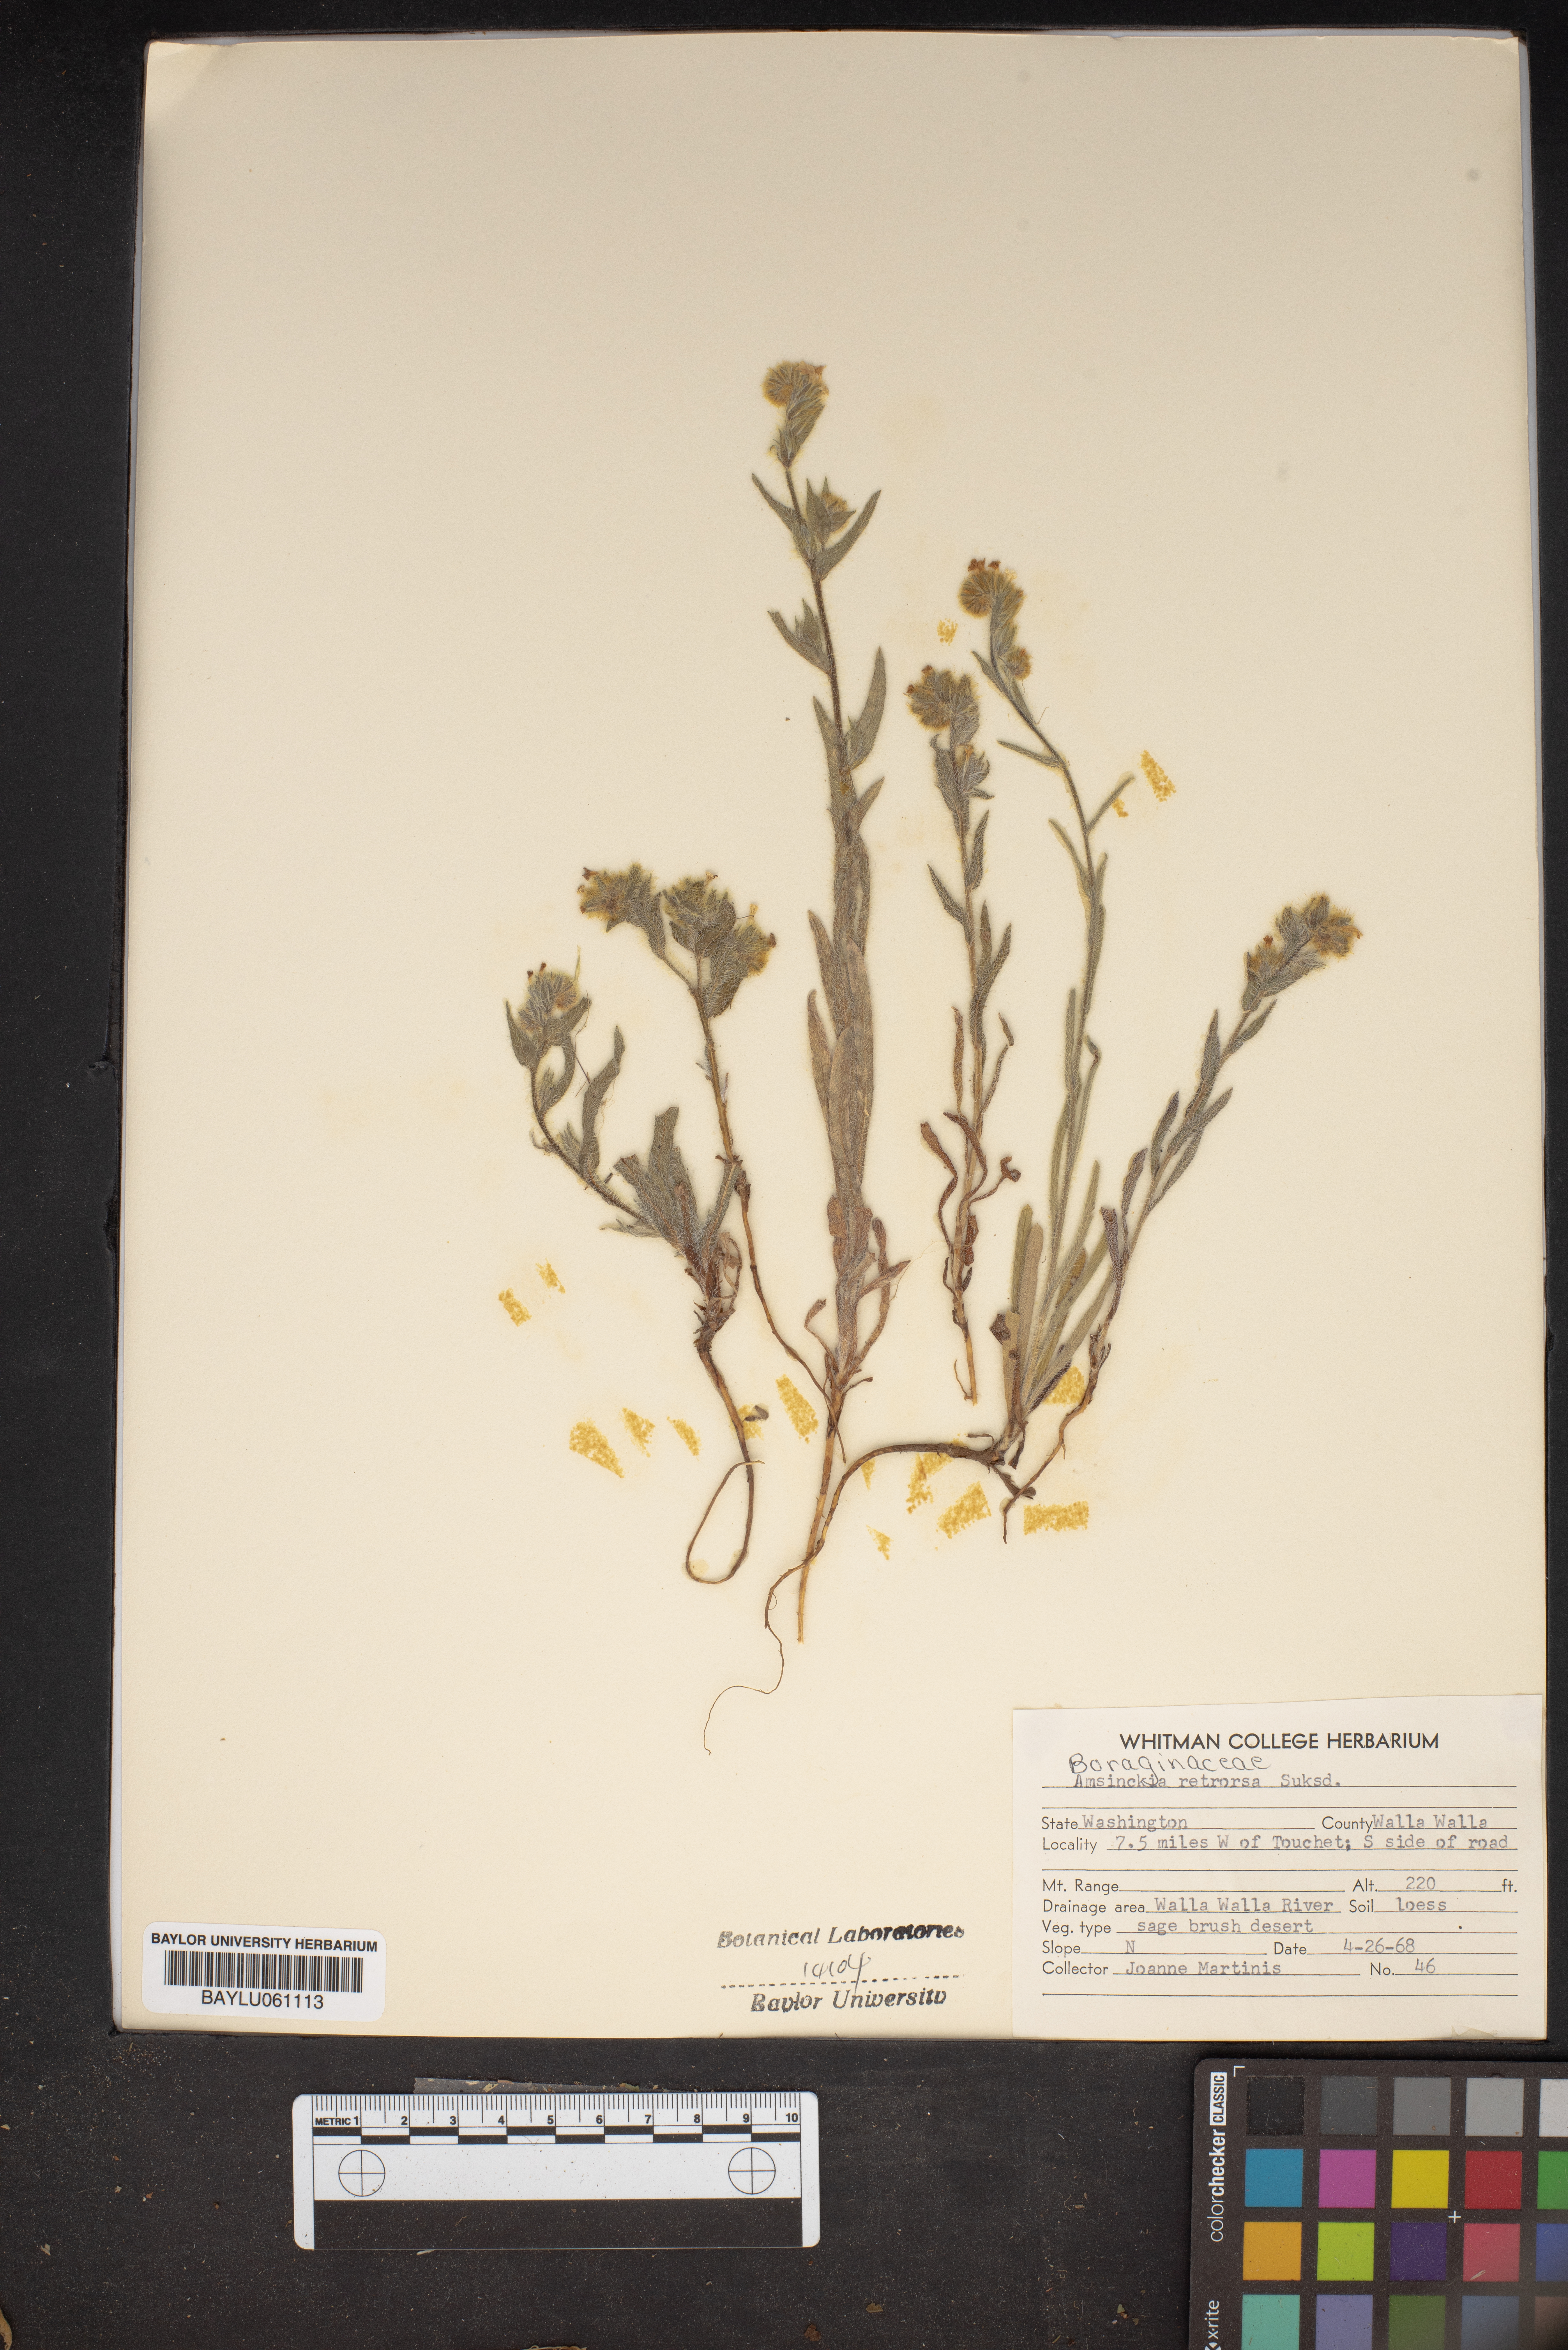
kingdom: Plantae
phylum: Tracheophyta
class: Magnoliopsida
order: Boraginales
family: Boraginaceae
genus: Amsinckia
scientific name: Amsinckia menziesii
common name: Menzies' fiddleneck
